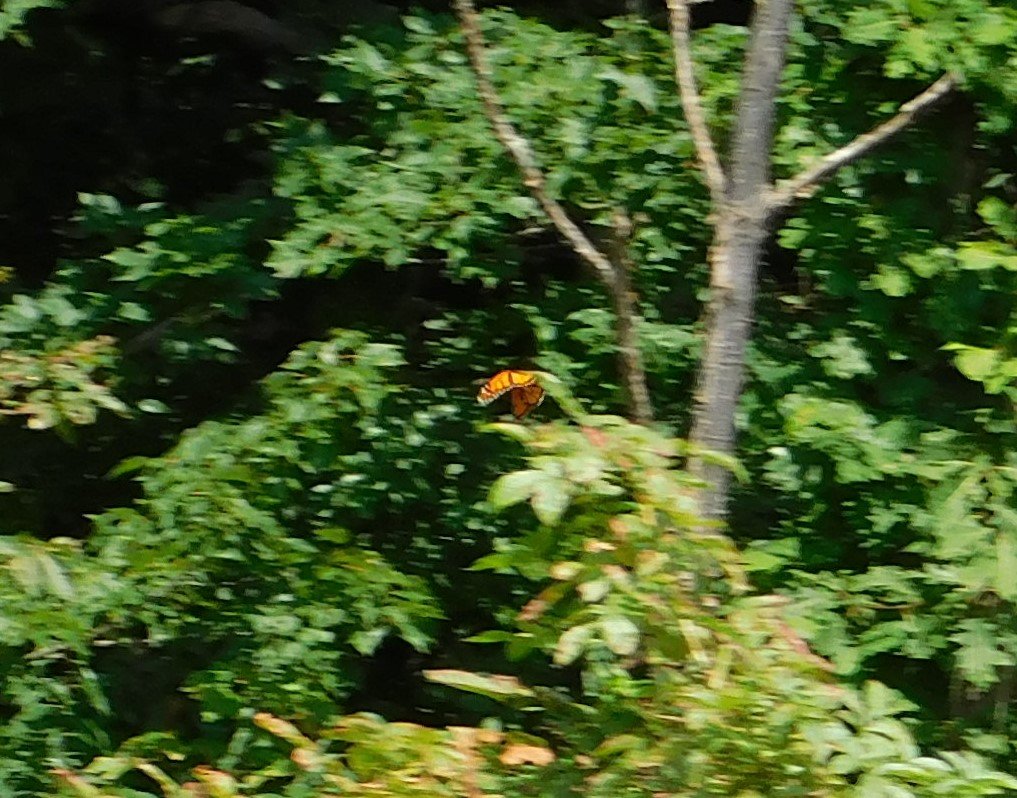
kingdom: Animalia
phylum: Arthropoda
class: Insecta
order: Lepidoptera
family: Nymphalidae
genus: Danaus
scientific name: Danaus plexippus
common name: Monarch
